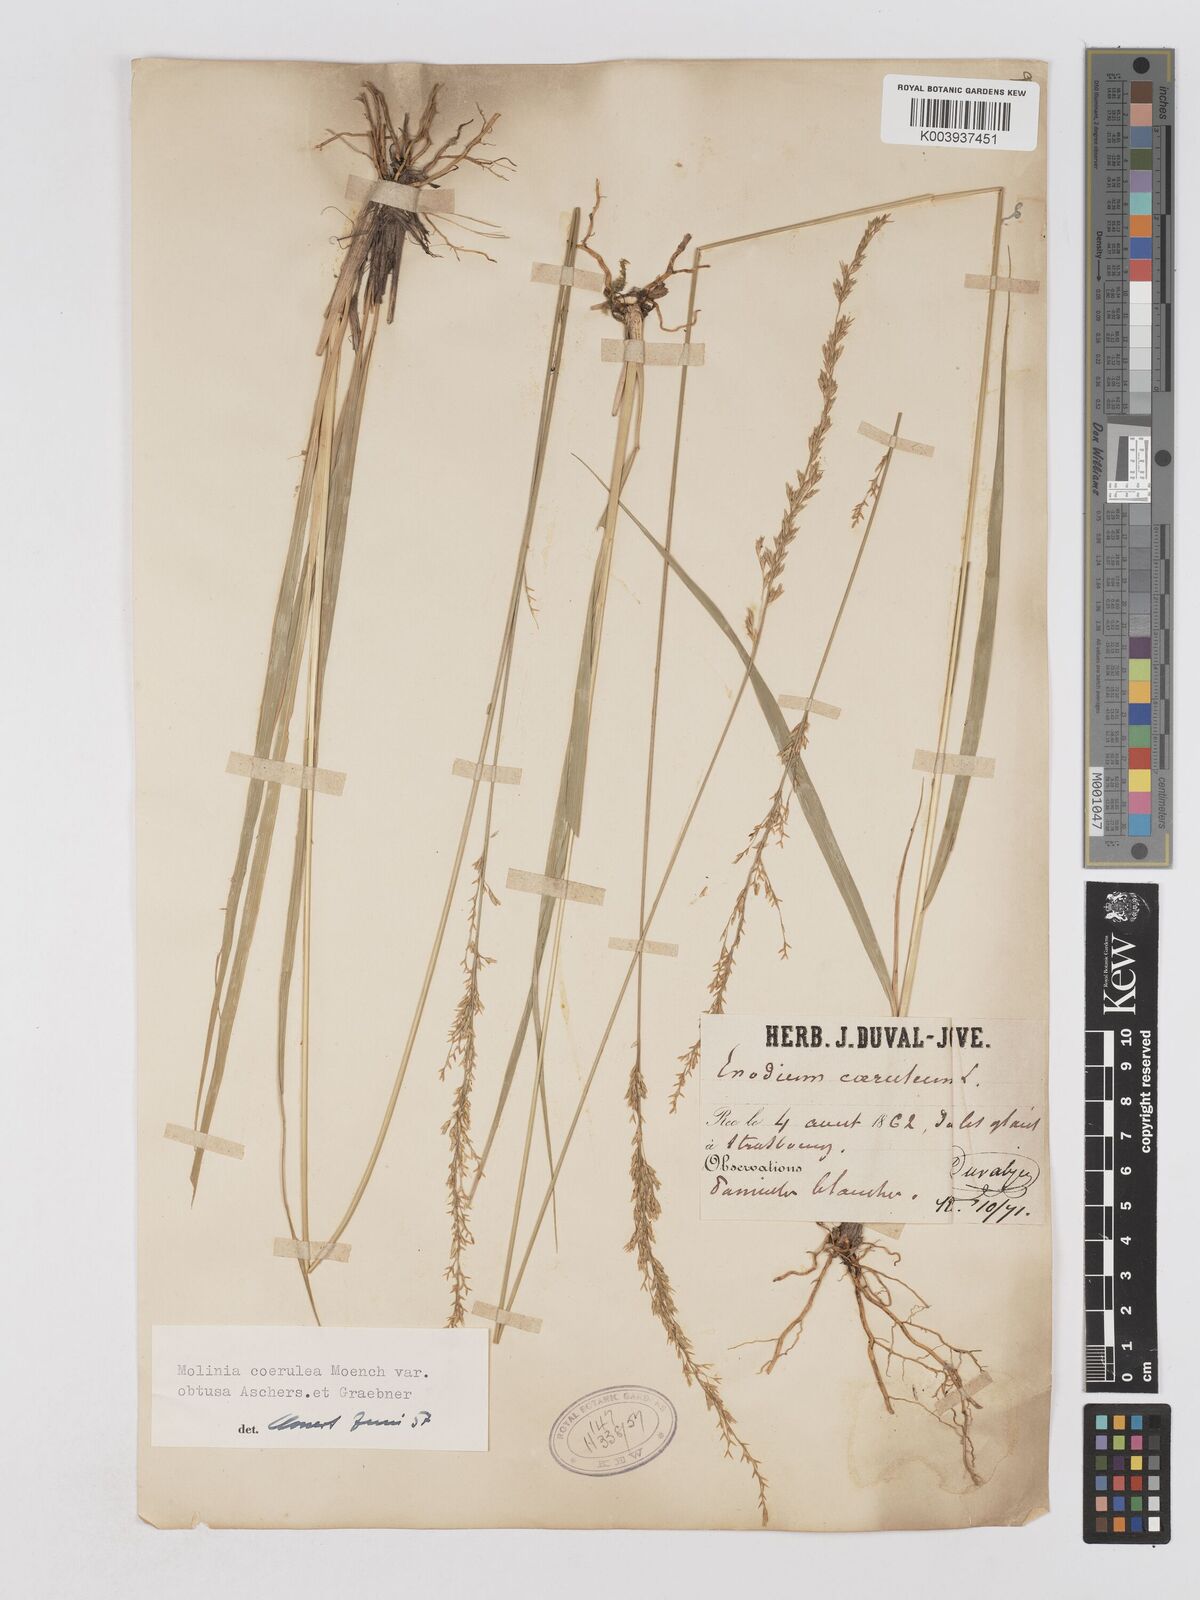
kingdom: Plantae
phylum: Tracheophyta
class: Liliopsida
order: Poales
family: Poaceae
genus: Molinia
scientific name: Molinia caerulea
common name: Purple moor-grass
